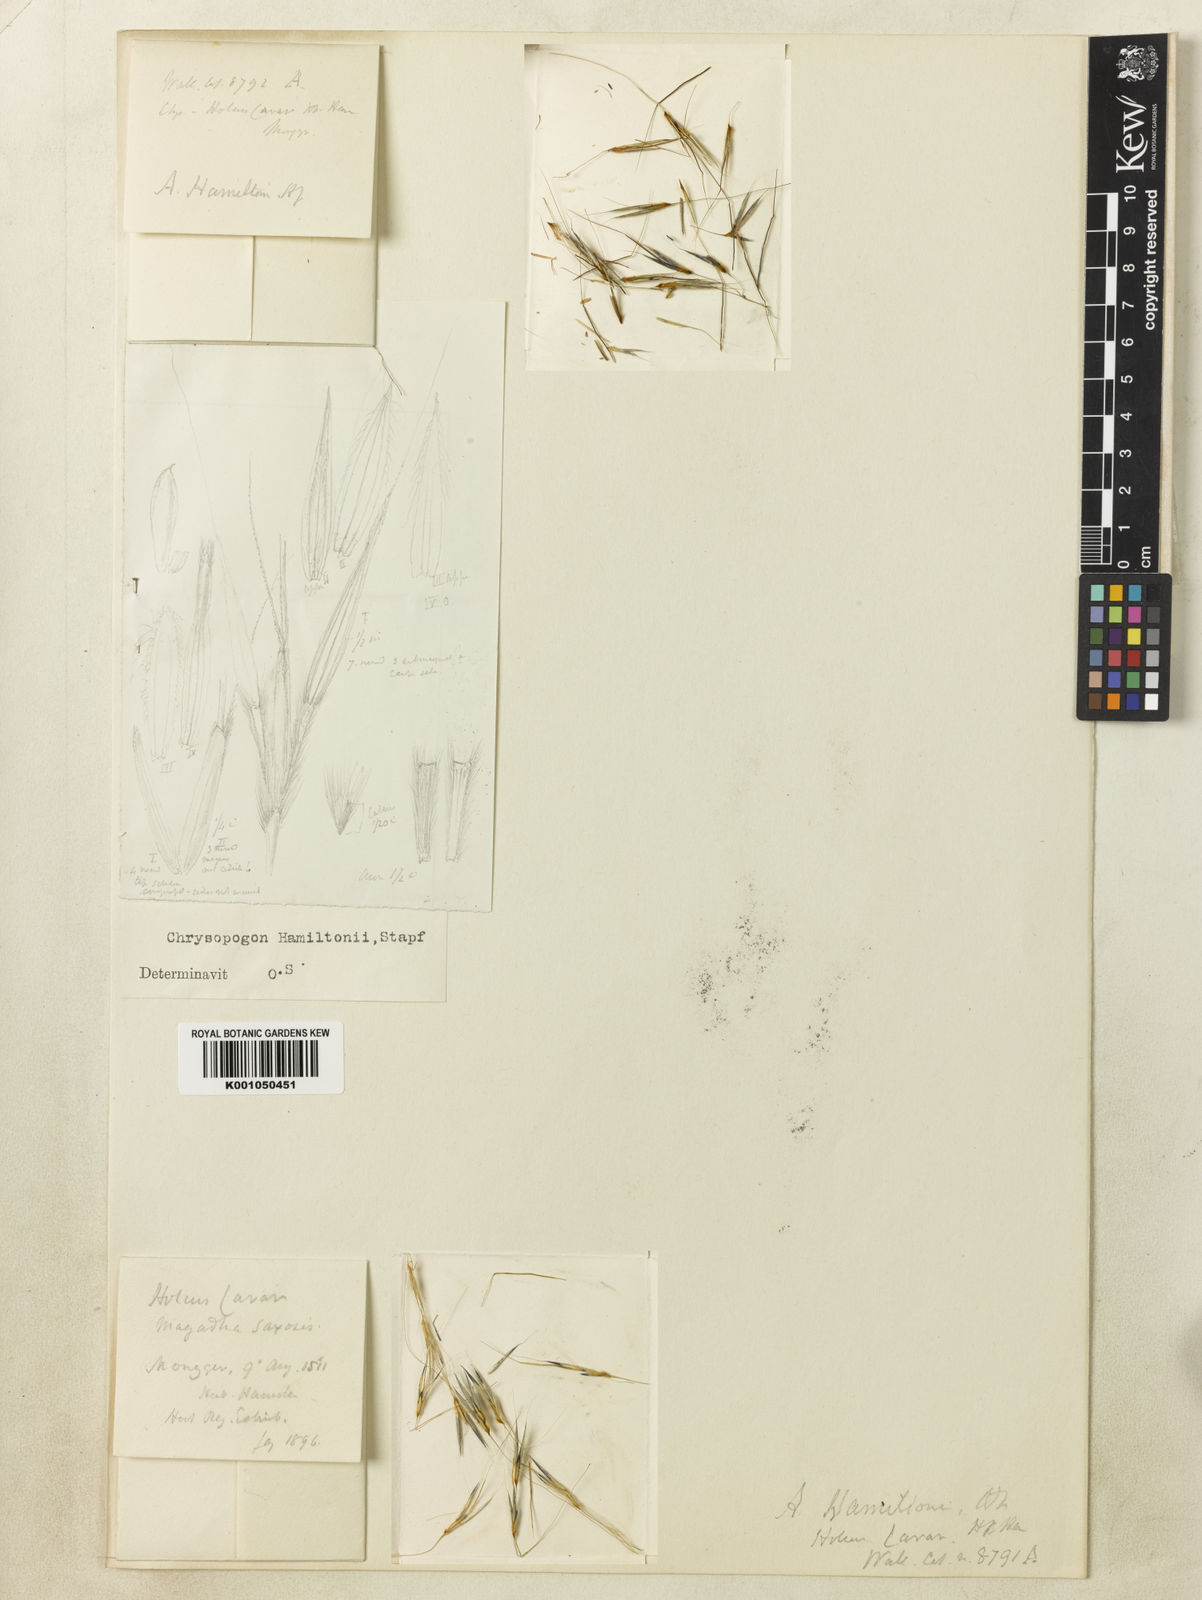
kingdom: Plantae
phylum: Tracheophyta
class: Liliopsida
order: Poales
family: Poaceae
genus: Chrysopogon
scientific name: Chrysopogon hamiltonii
